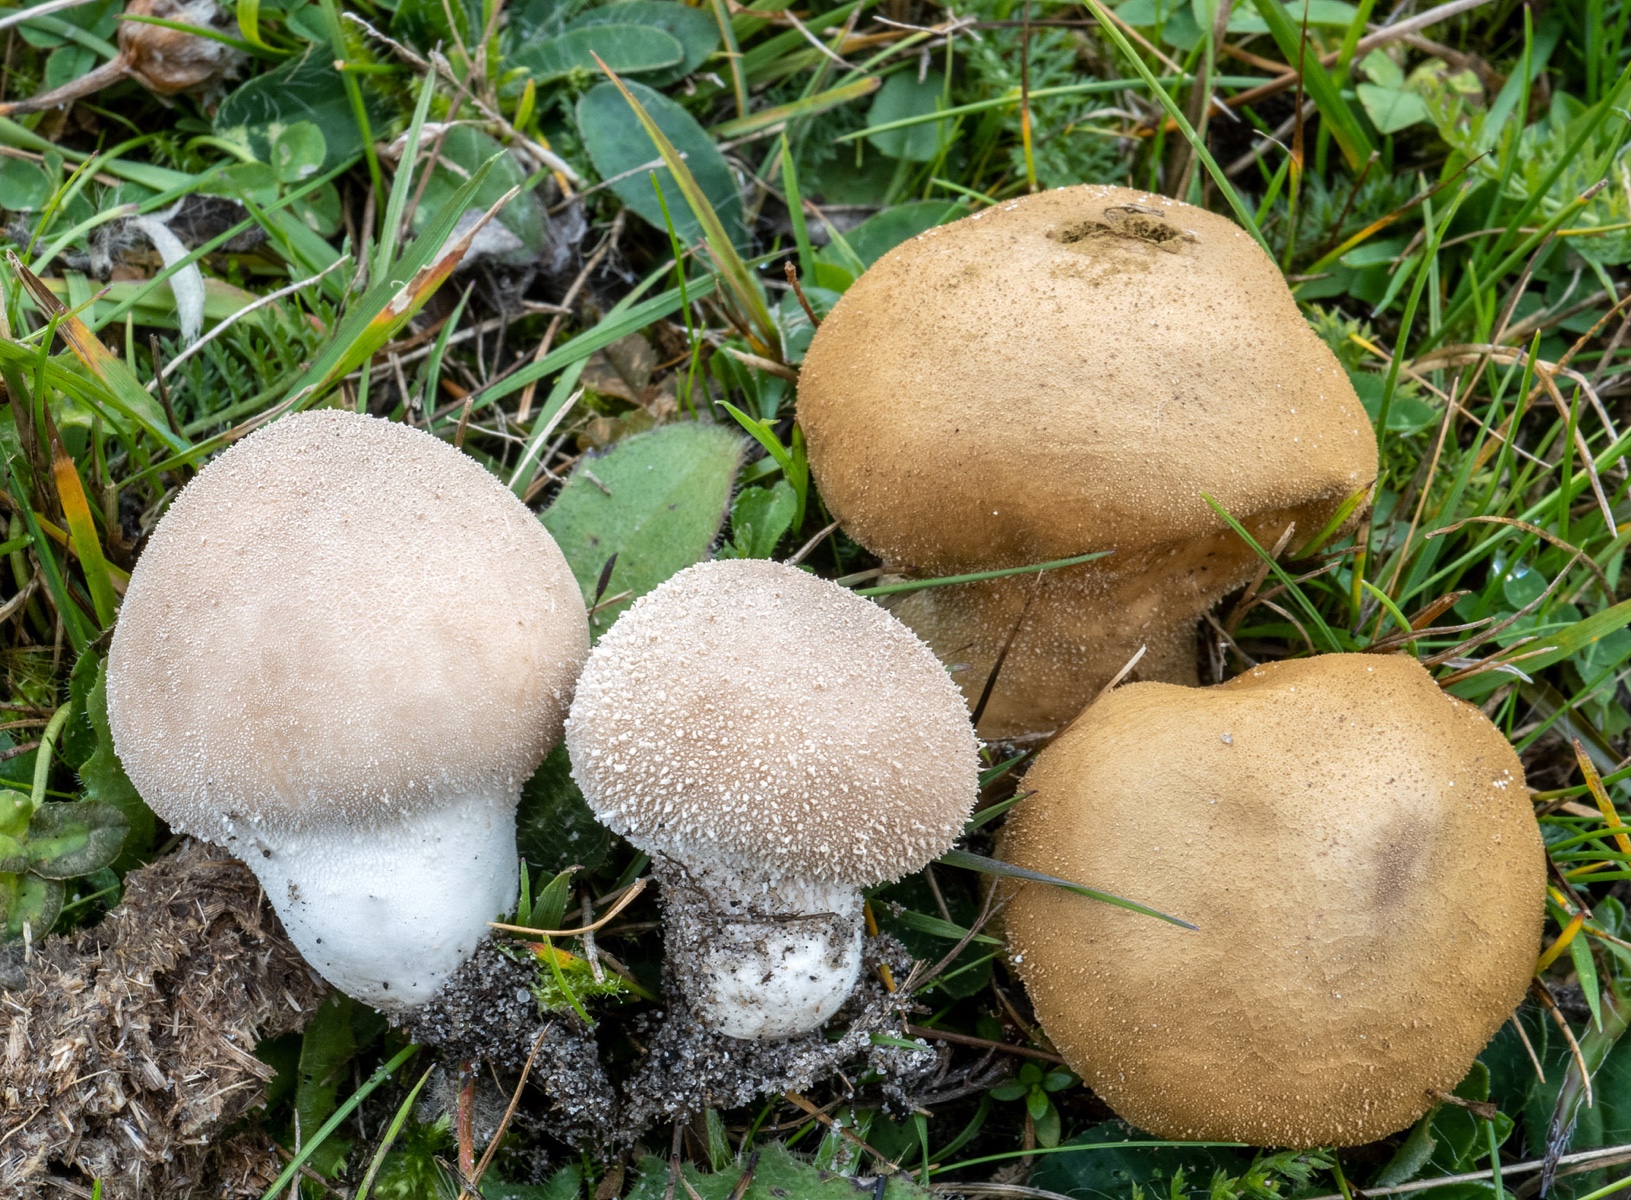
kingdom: Fungi
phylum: Basidiomycota
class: Agaricomycetes
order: Agaricales
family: Lycoperdaceae
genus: Lycoperdon
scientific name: Lycoperdon lividum
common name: mark-støvbold
